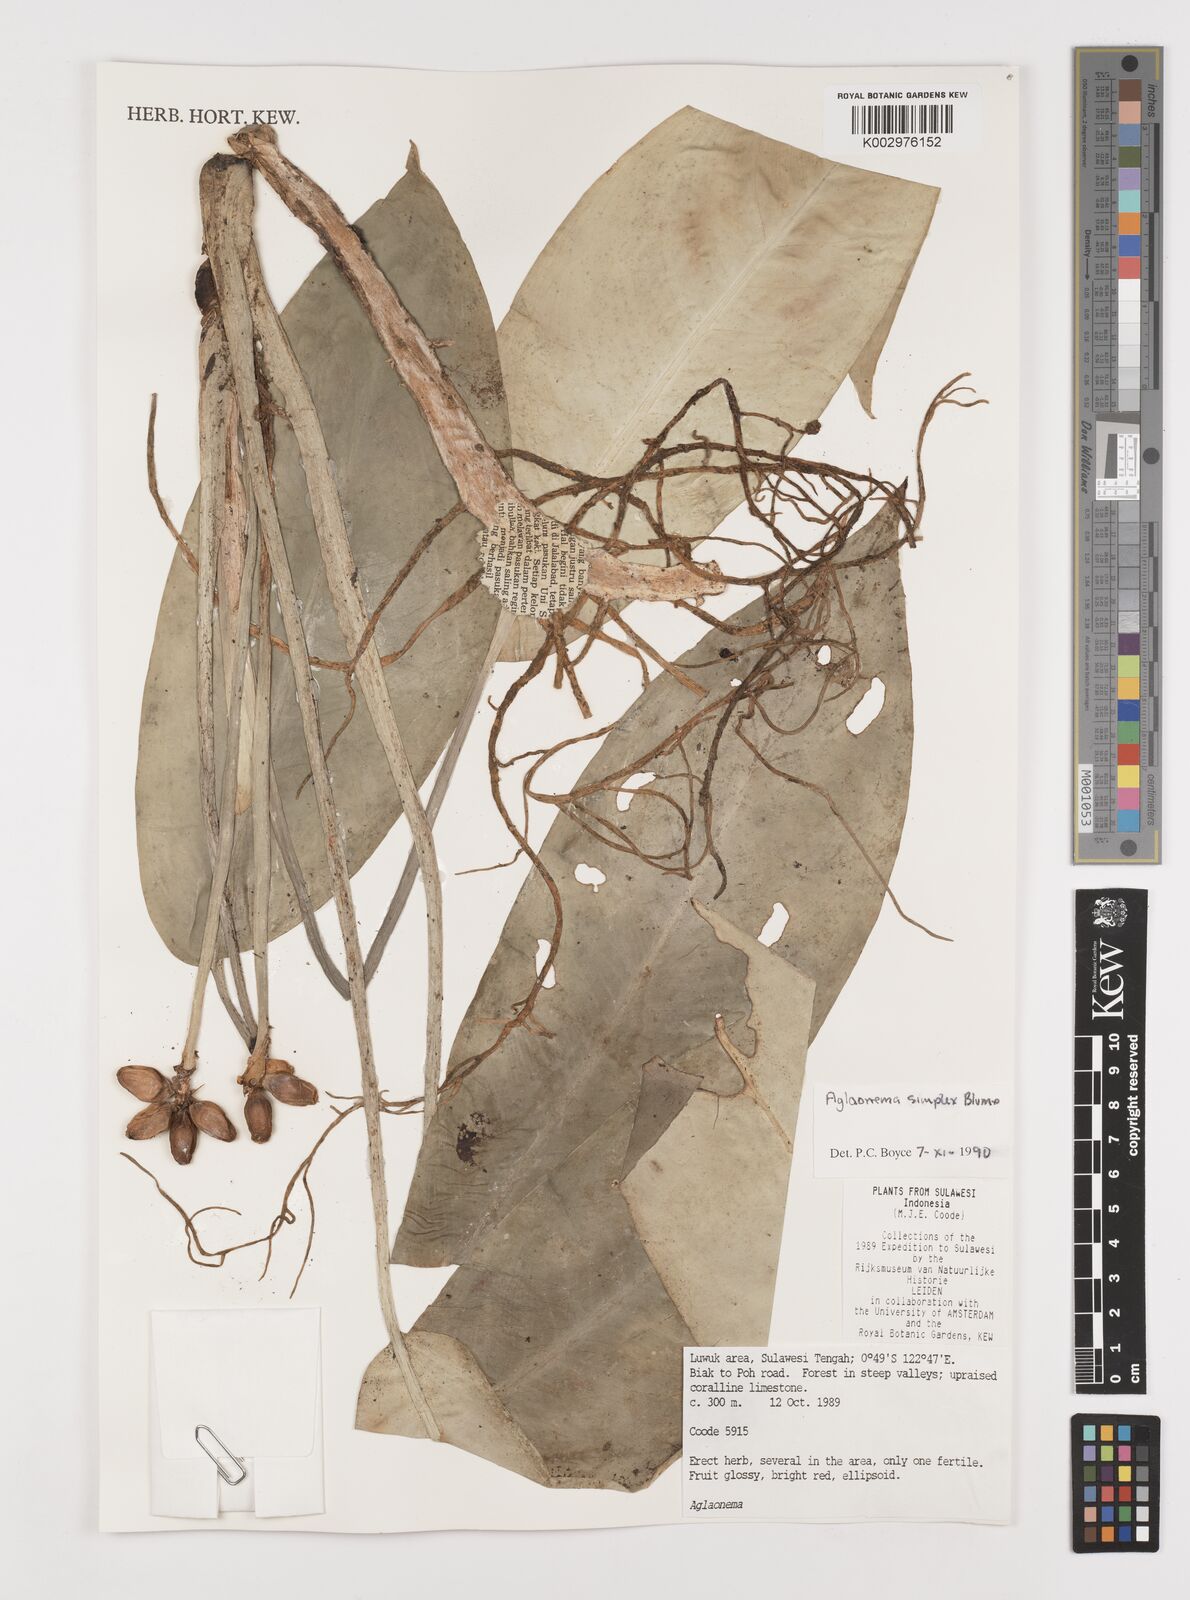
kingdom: Plantae
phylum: Tracheophyta
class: Liliopsida
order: Alismatales
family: Araceae
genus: Aglaonema
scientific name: Aglaonema simplex
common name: Malayan-sword
